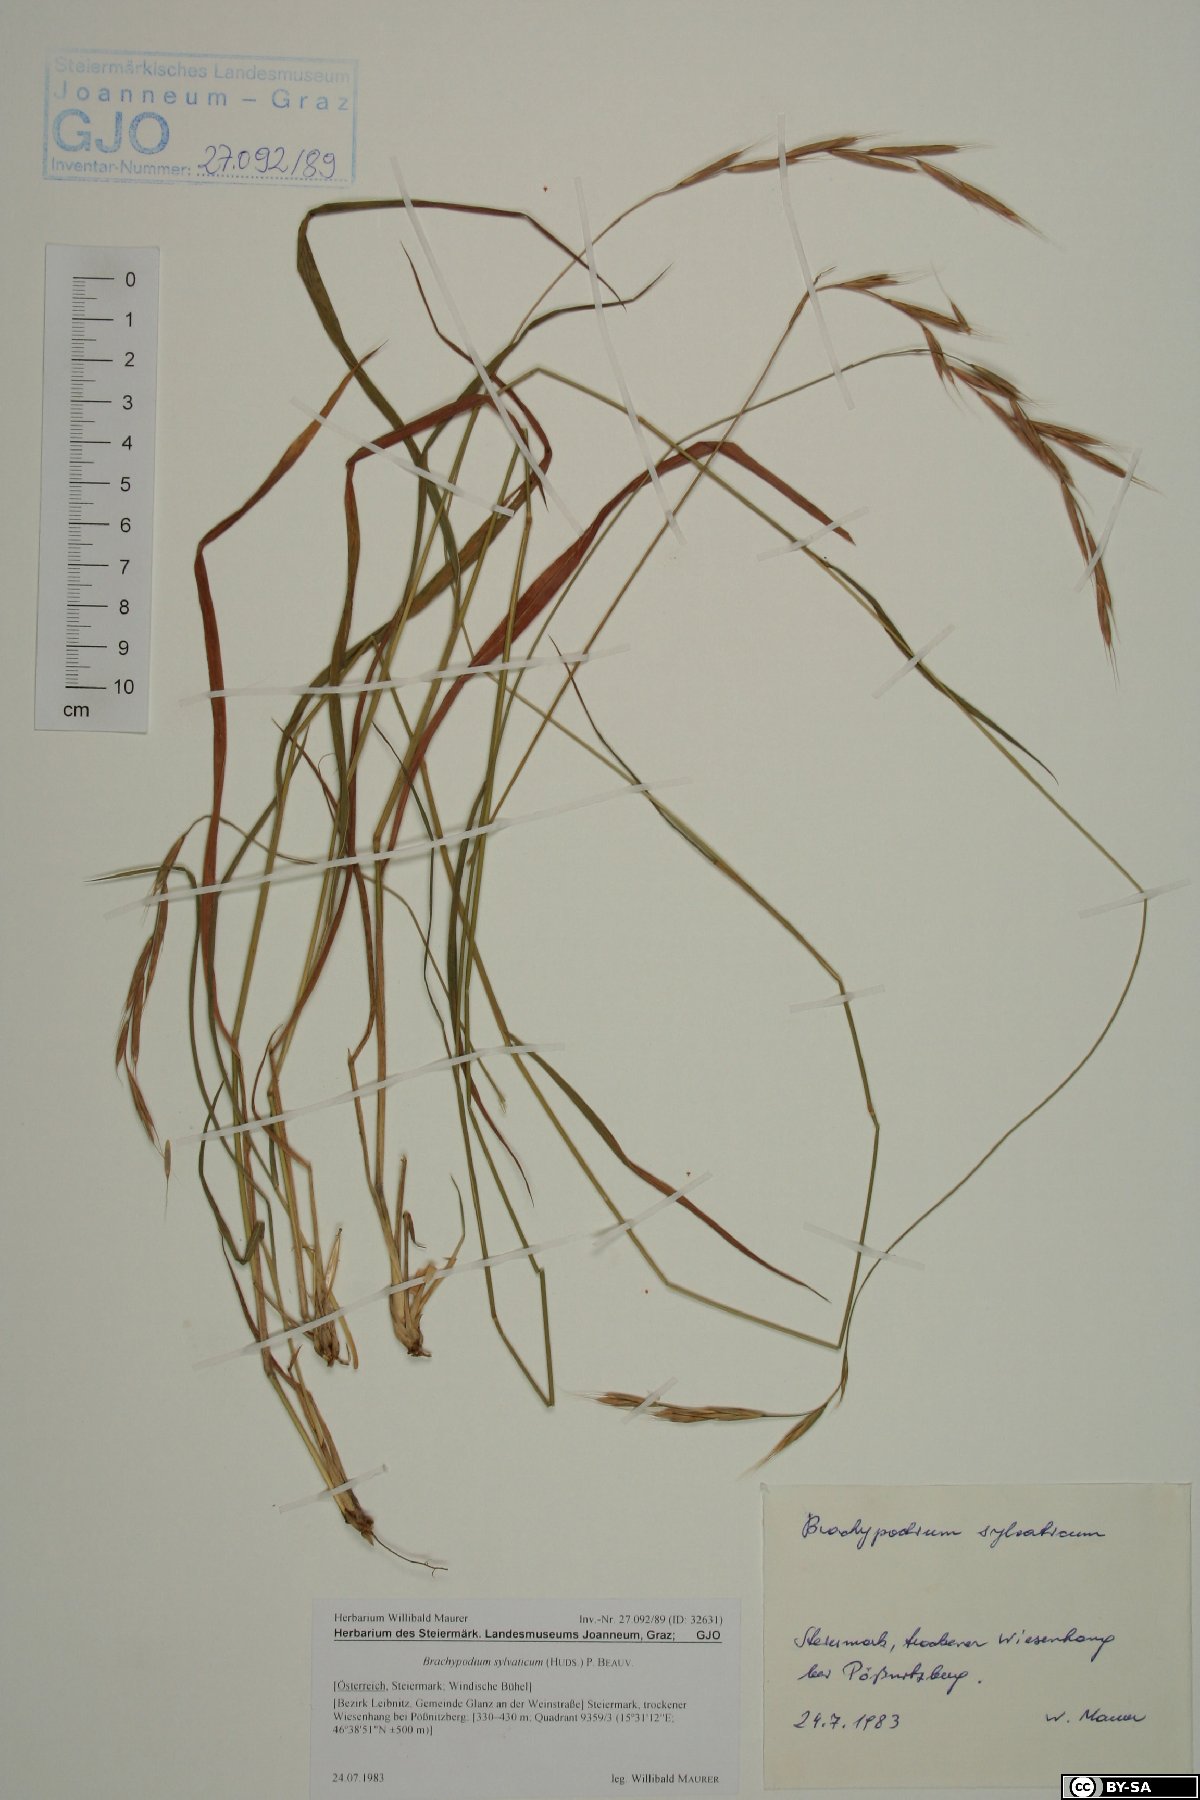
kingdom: Plantae
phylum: Tracheophyta
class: Liliopsida
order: Poales
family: Poaceae
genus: Brachypodium
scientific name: Brachypodium sylvaticum
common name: False-brome
